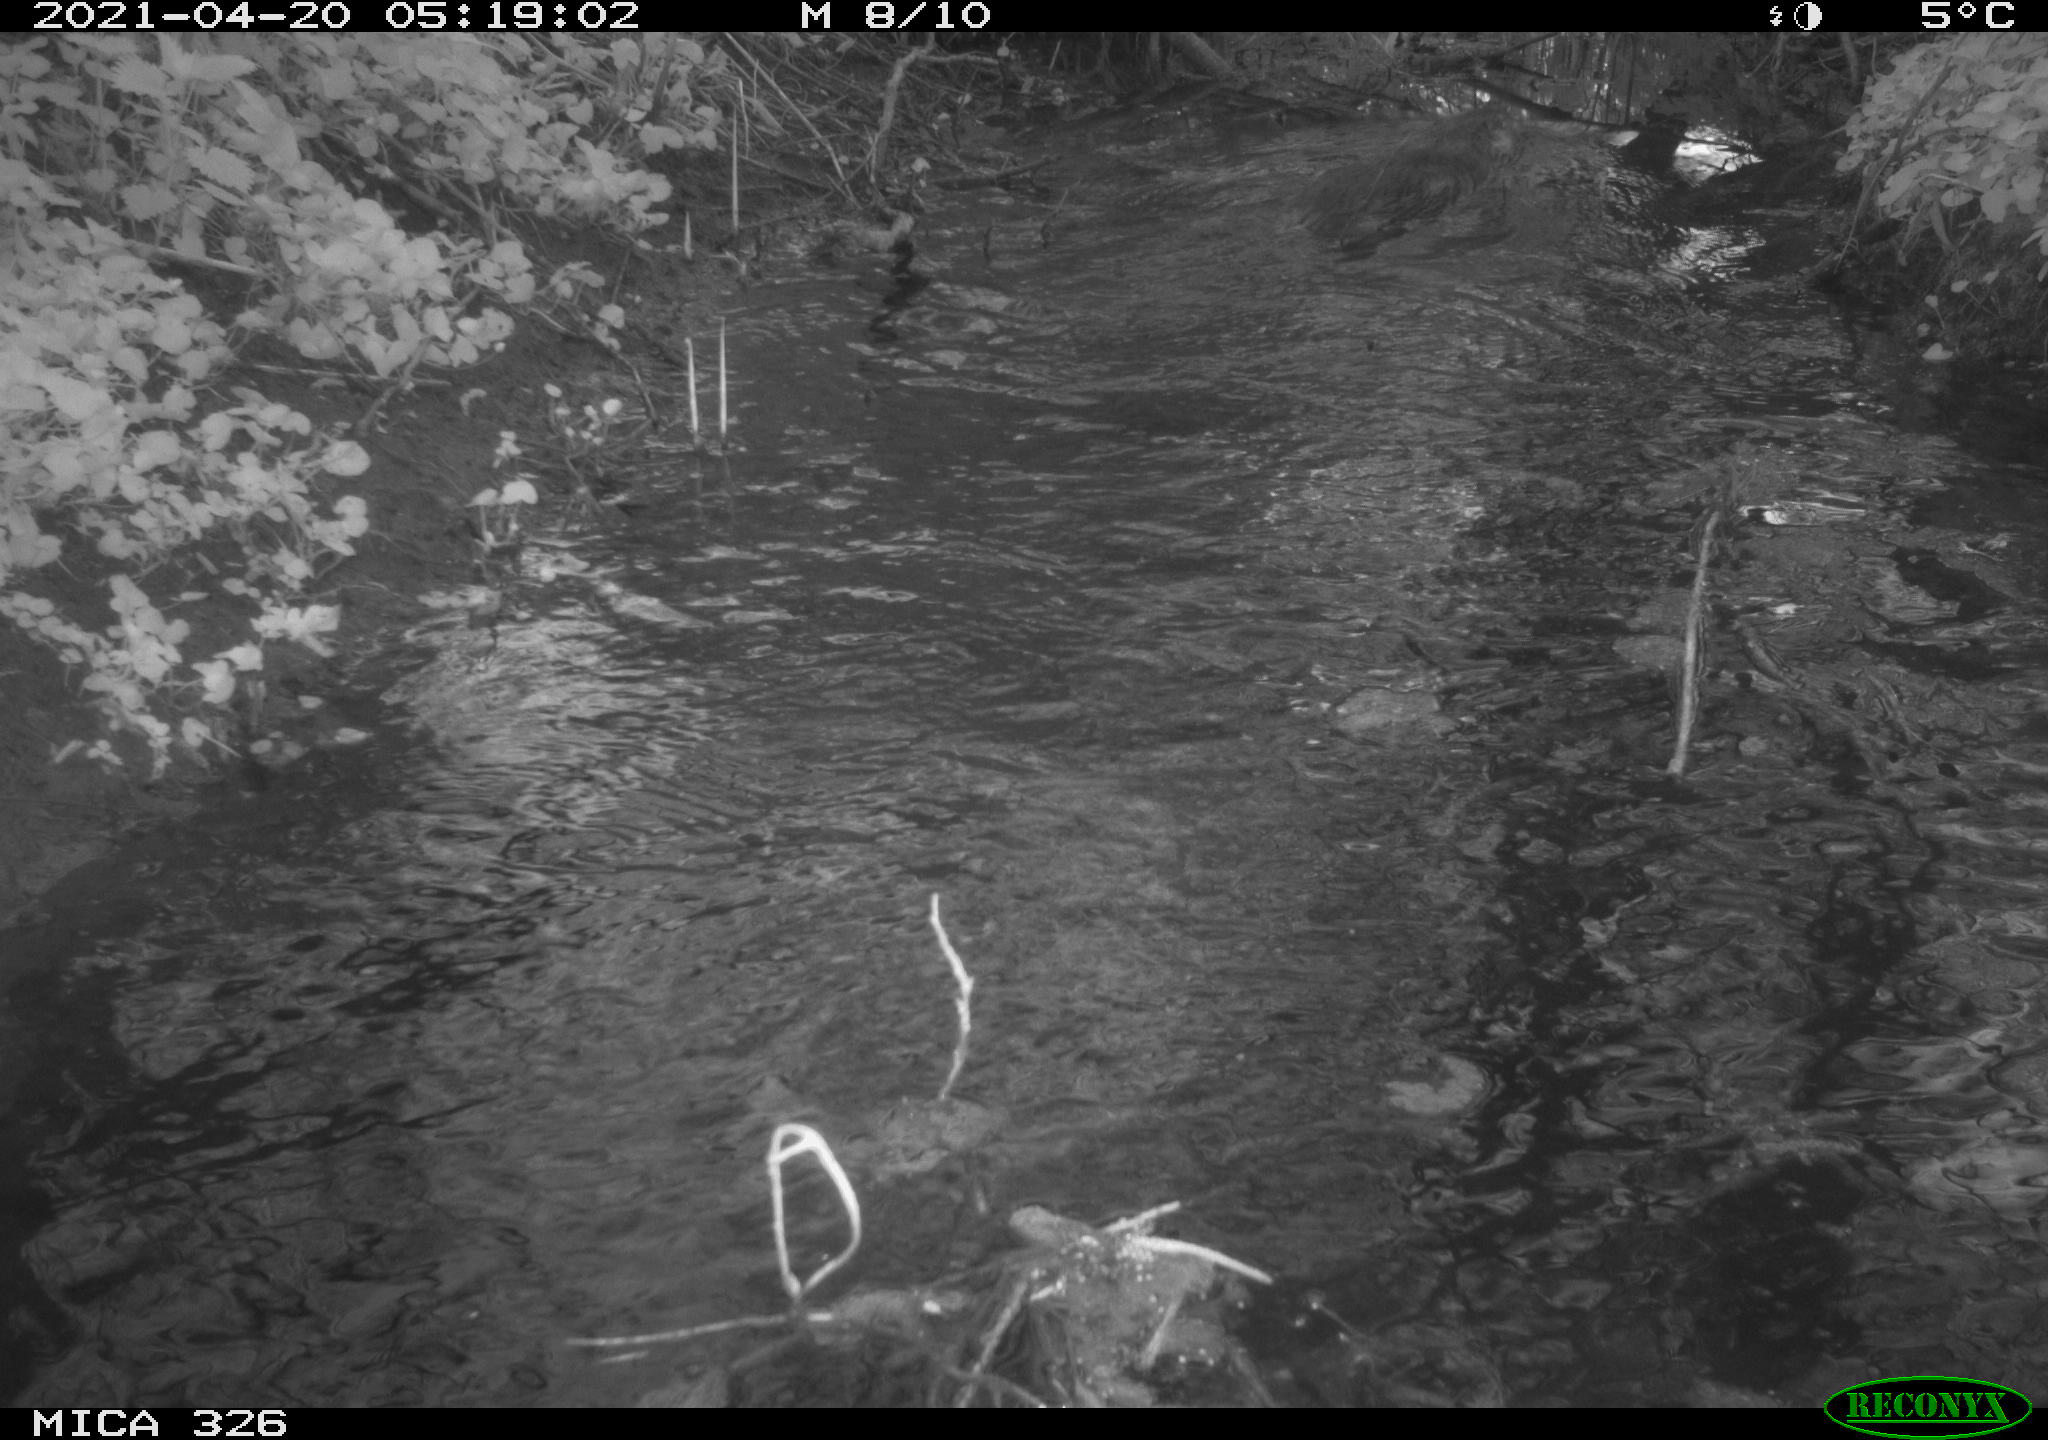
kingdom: Animalia
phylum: Chordata
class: Mammalia
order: Rodentia
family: Myocastoridae
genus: Myocastor
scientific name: Myocastor coypus
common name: Coypu
